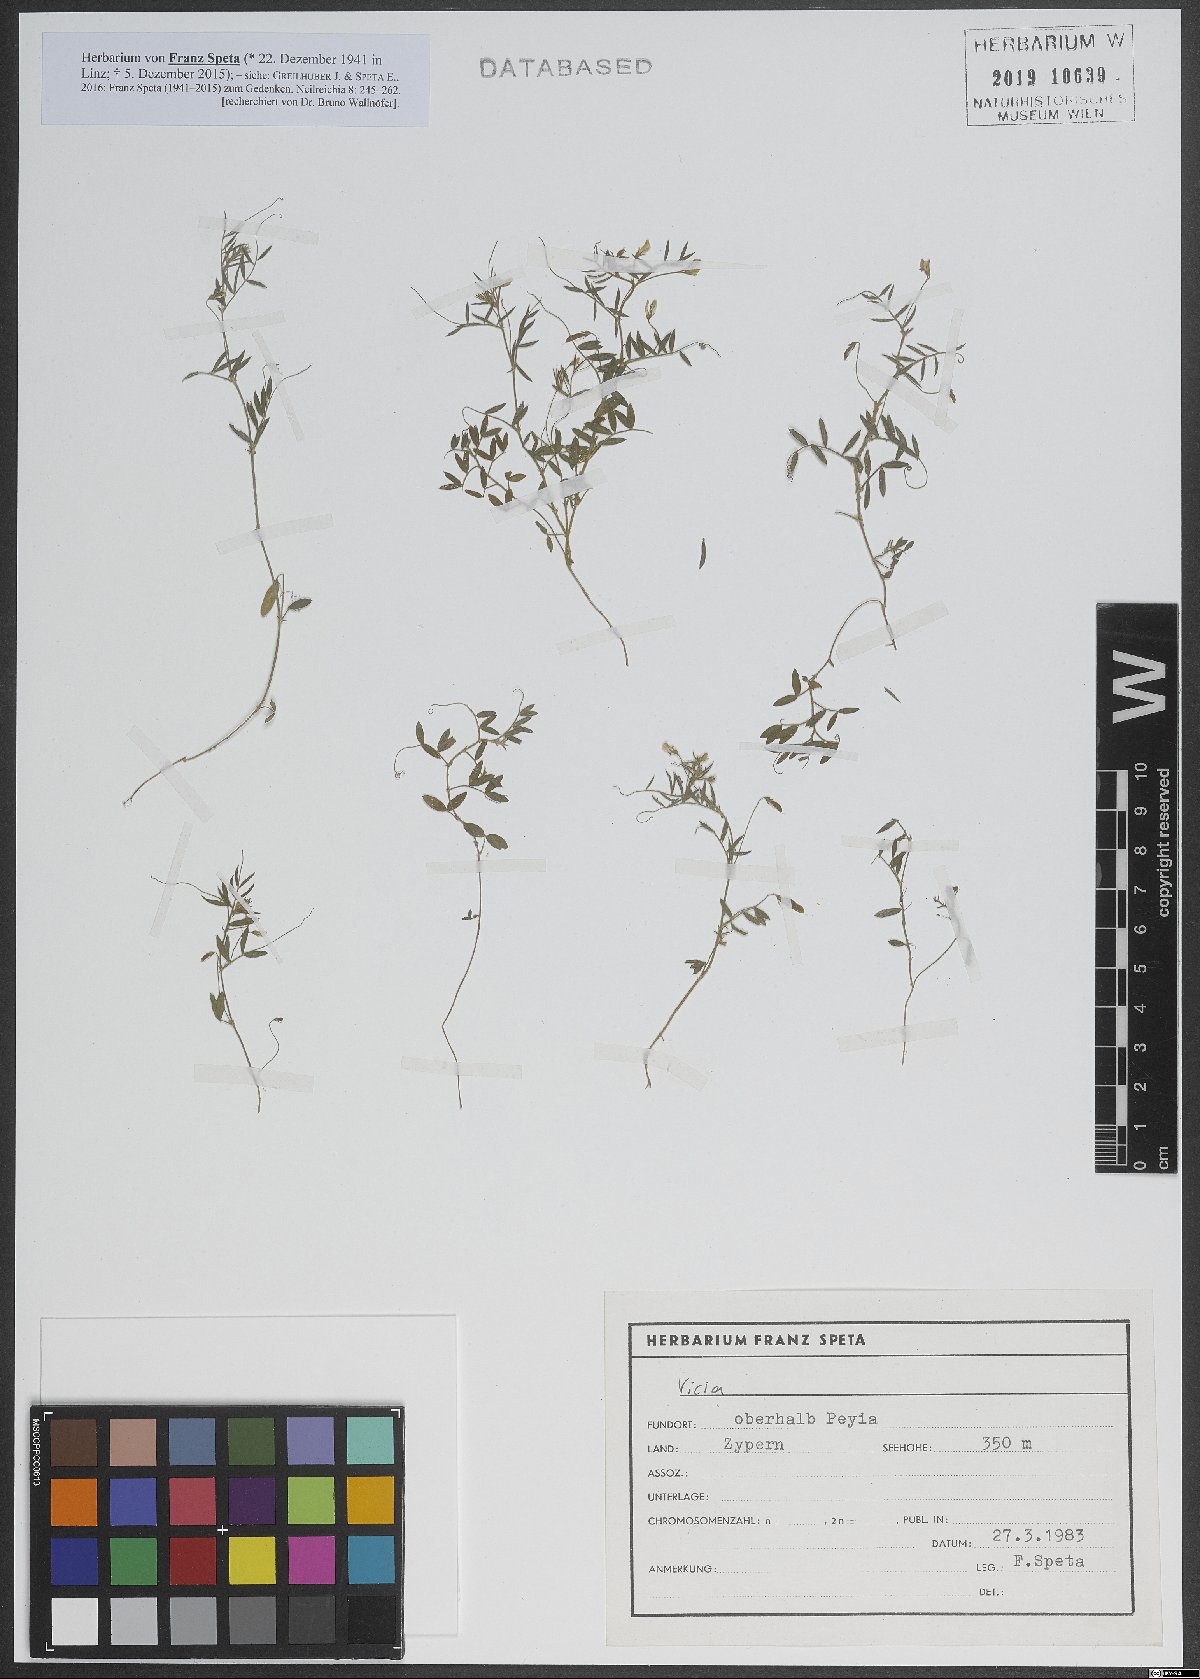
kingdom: Plantae
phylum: Tracheophyta
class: Magnoliopsida
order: Fabales
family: Fabaceae
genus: Vicia
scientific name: Vicia
